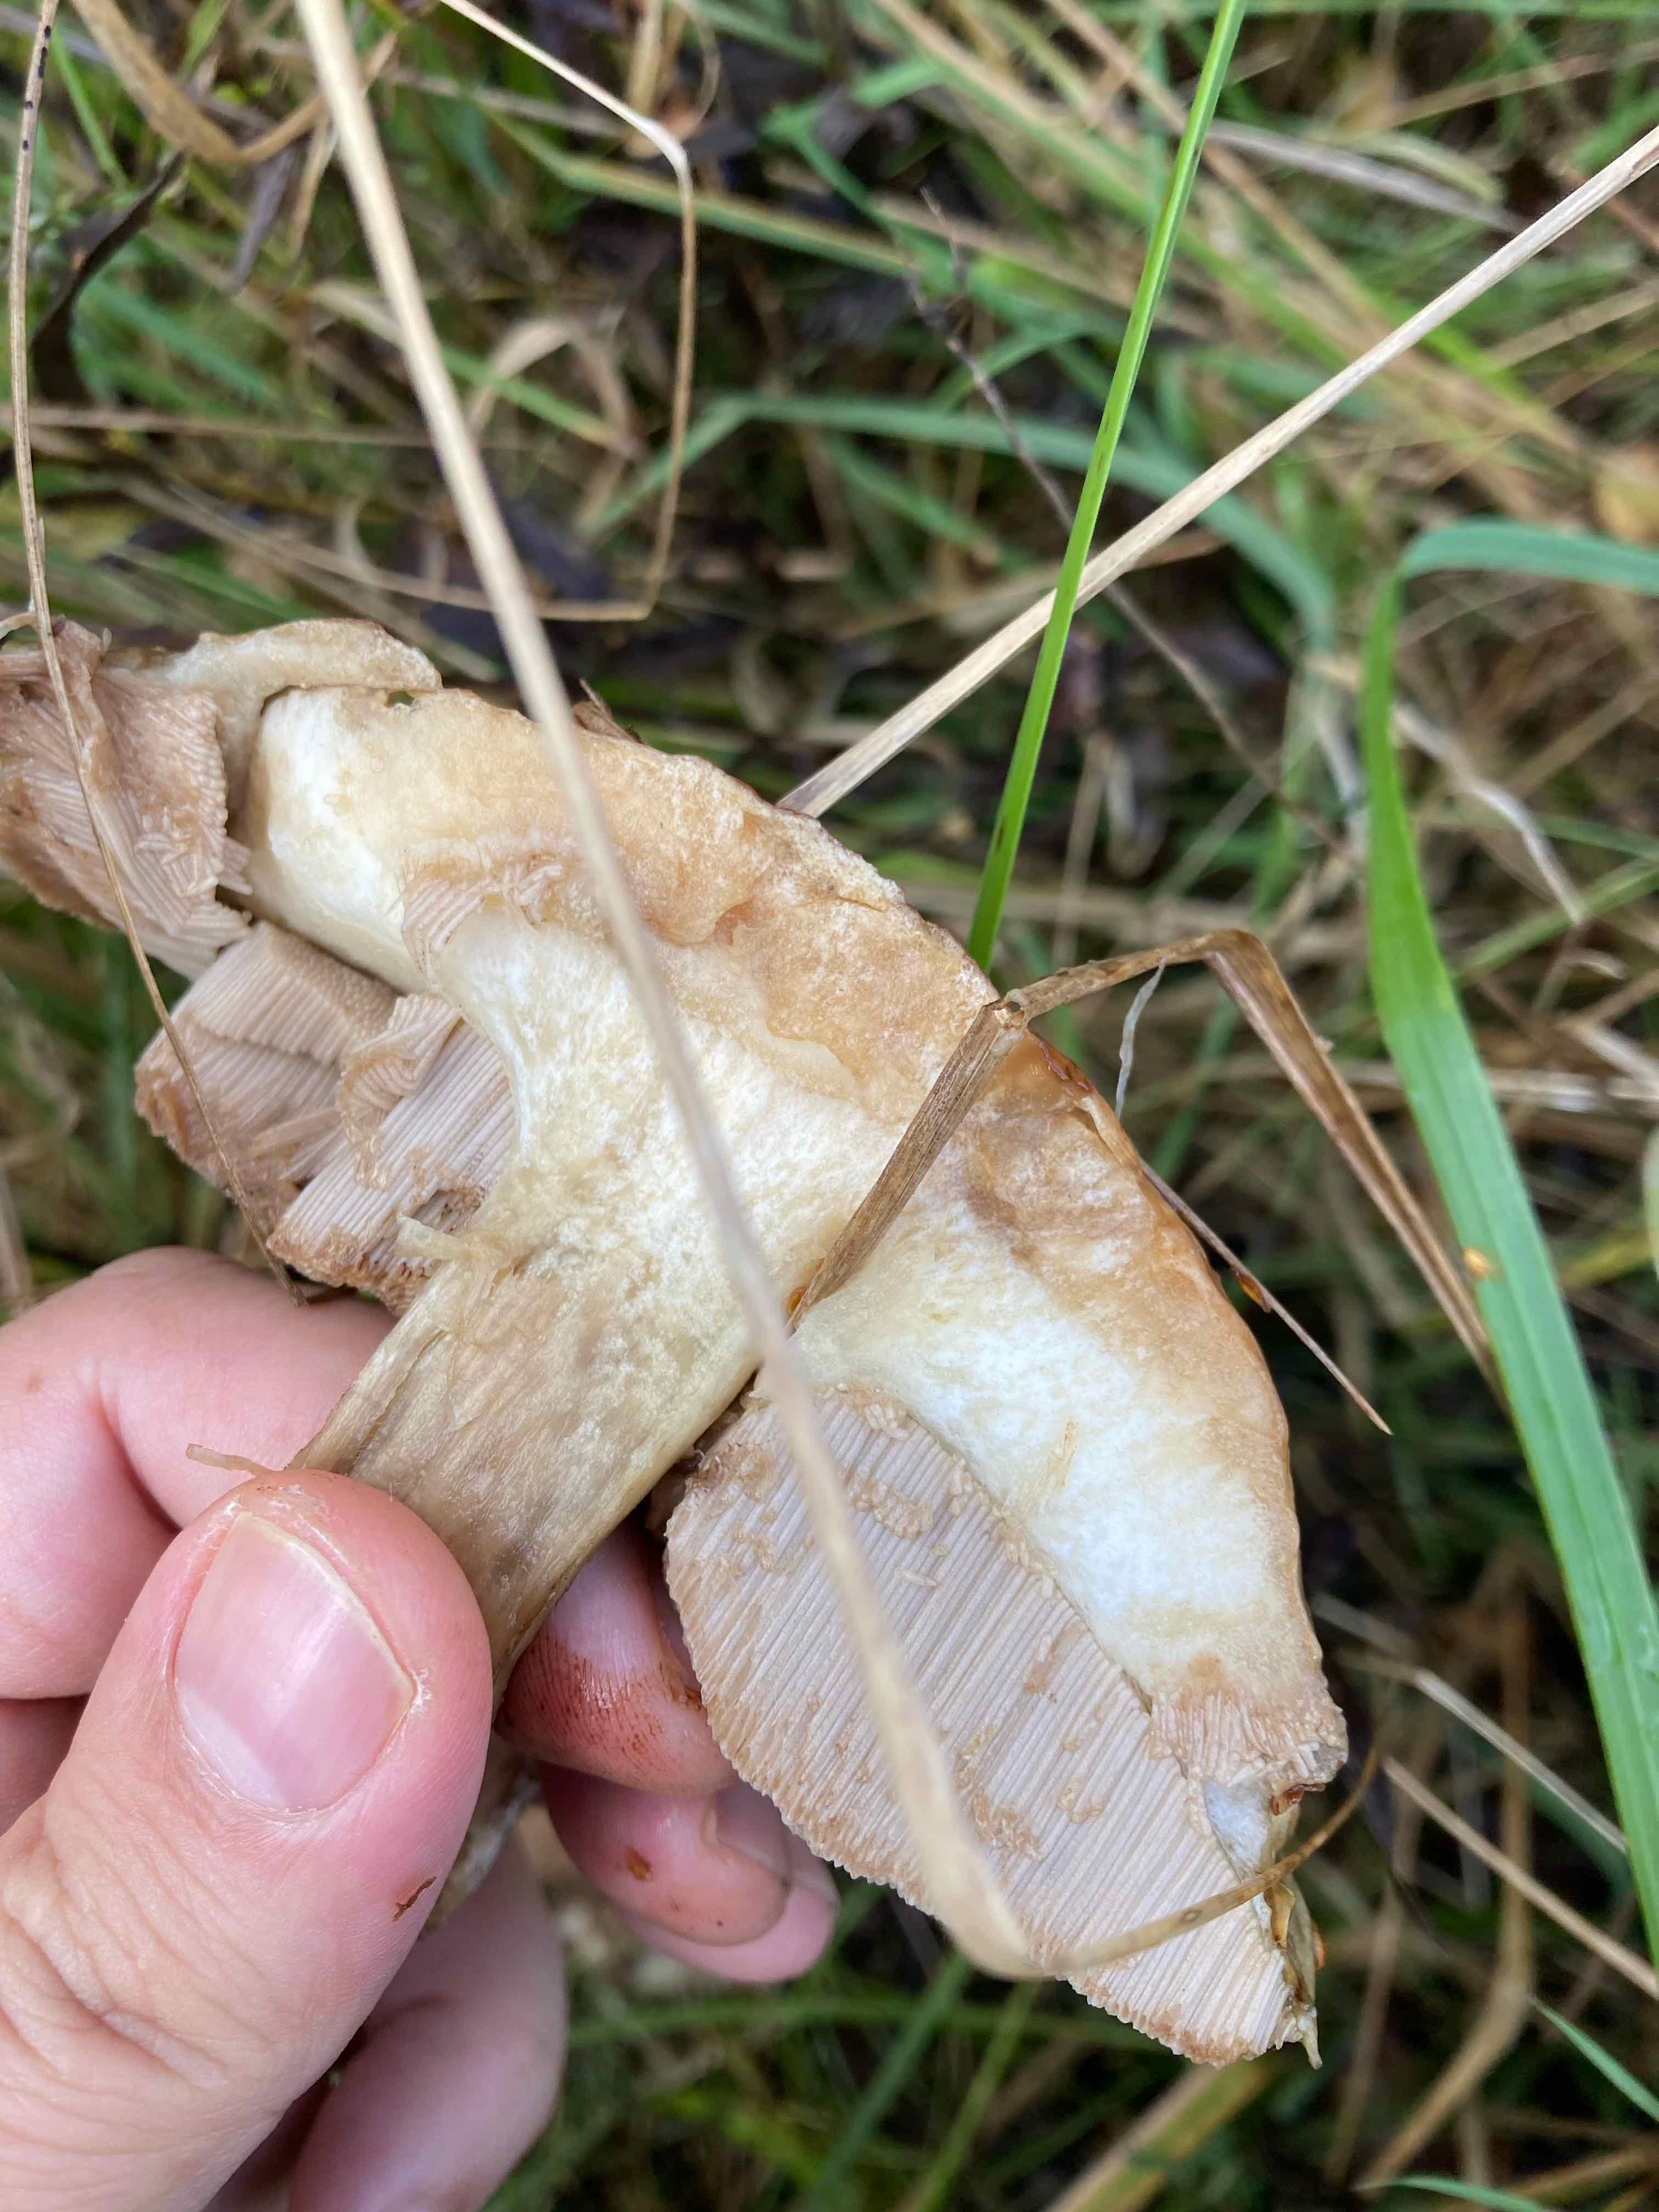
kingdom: Fungi
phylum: Basidiomycota
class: Agaricomycetes
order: Boletales
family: Boletaceae
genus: Leccinum
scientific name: Leccinum
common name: skælrørhat
